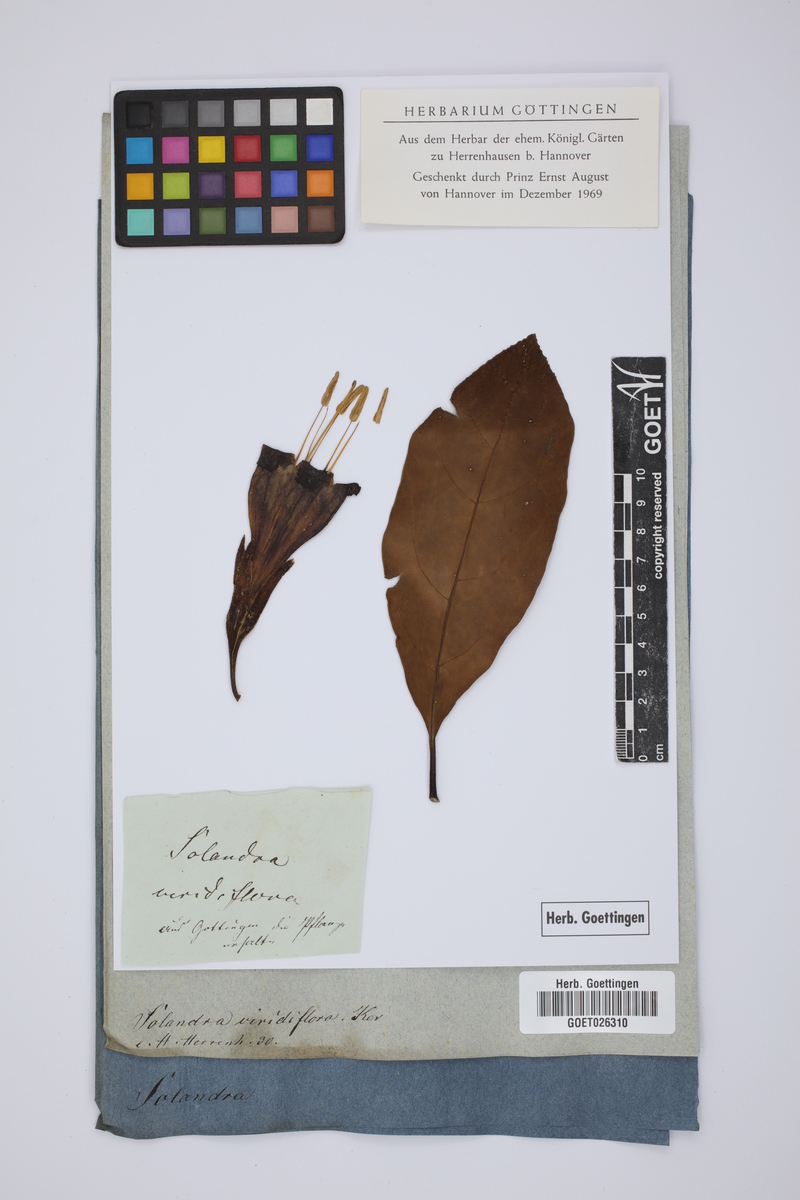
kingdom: Plantae
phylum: Tracheophyta
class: Magnoliopsida
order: Solanales
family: Solanaceae
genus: Dyssochroma
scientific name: Dyssochroma viridiflorum
